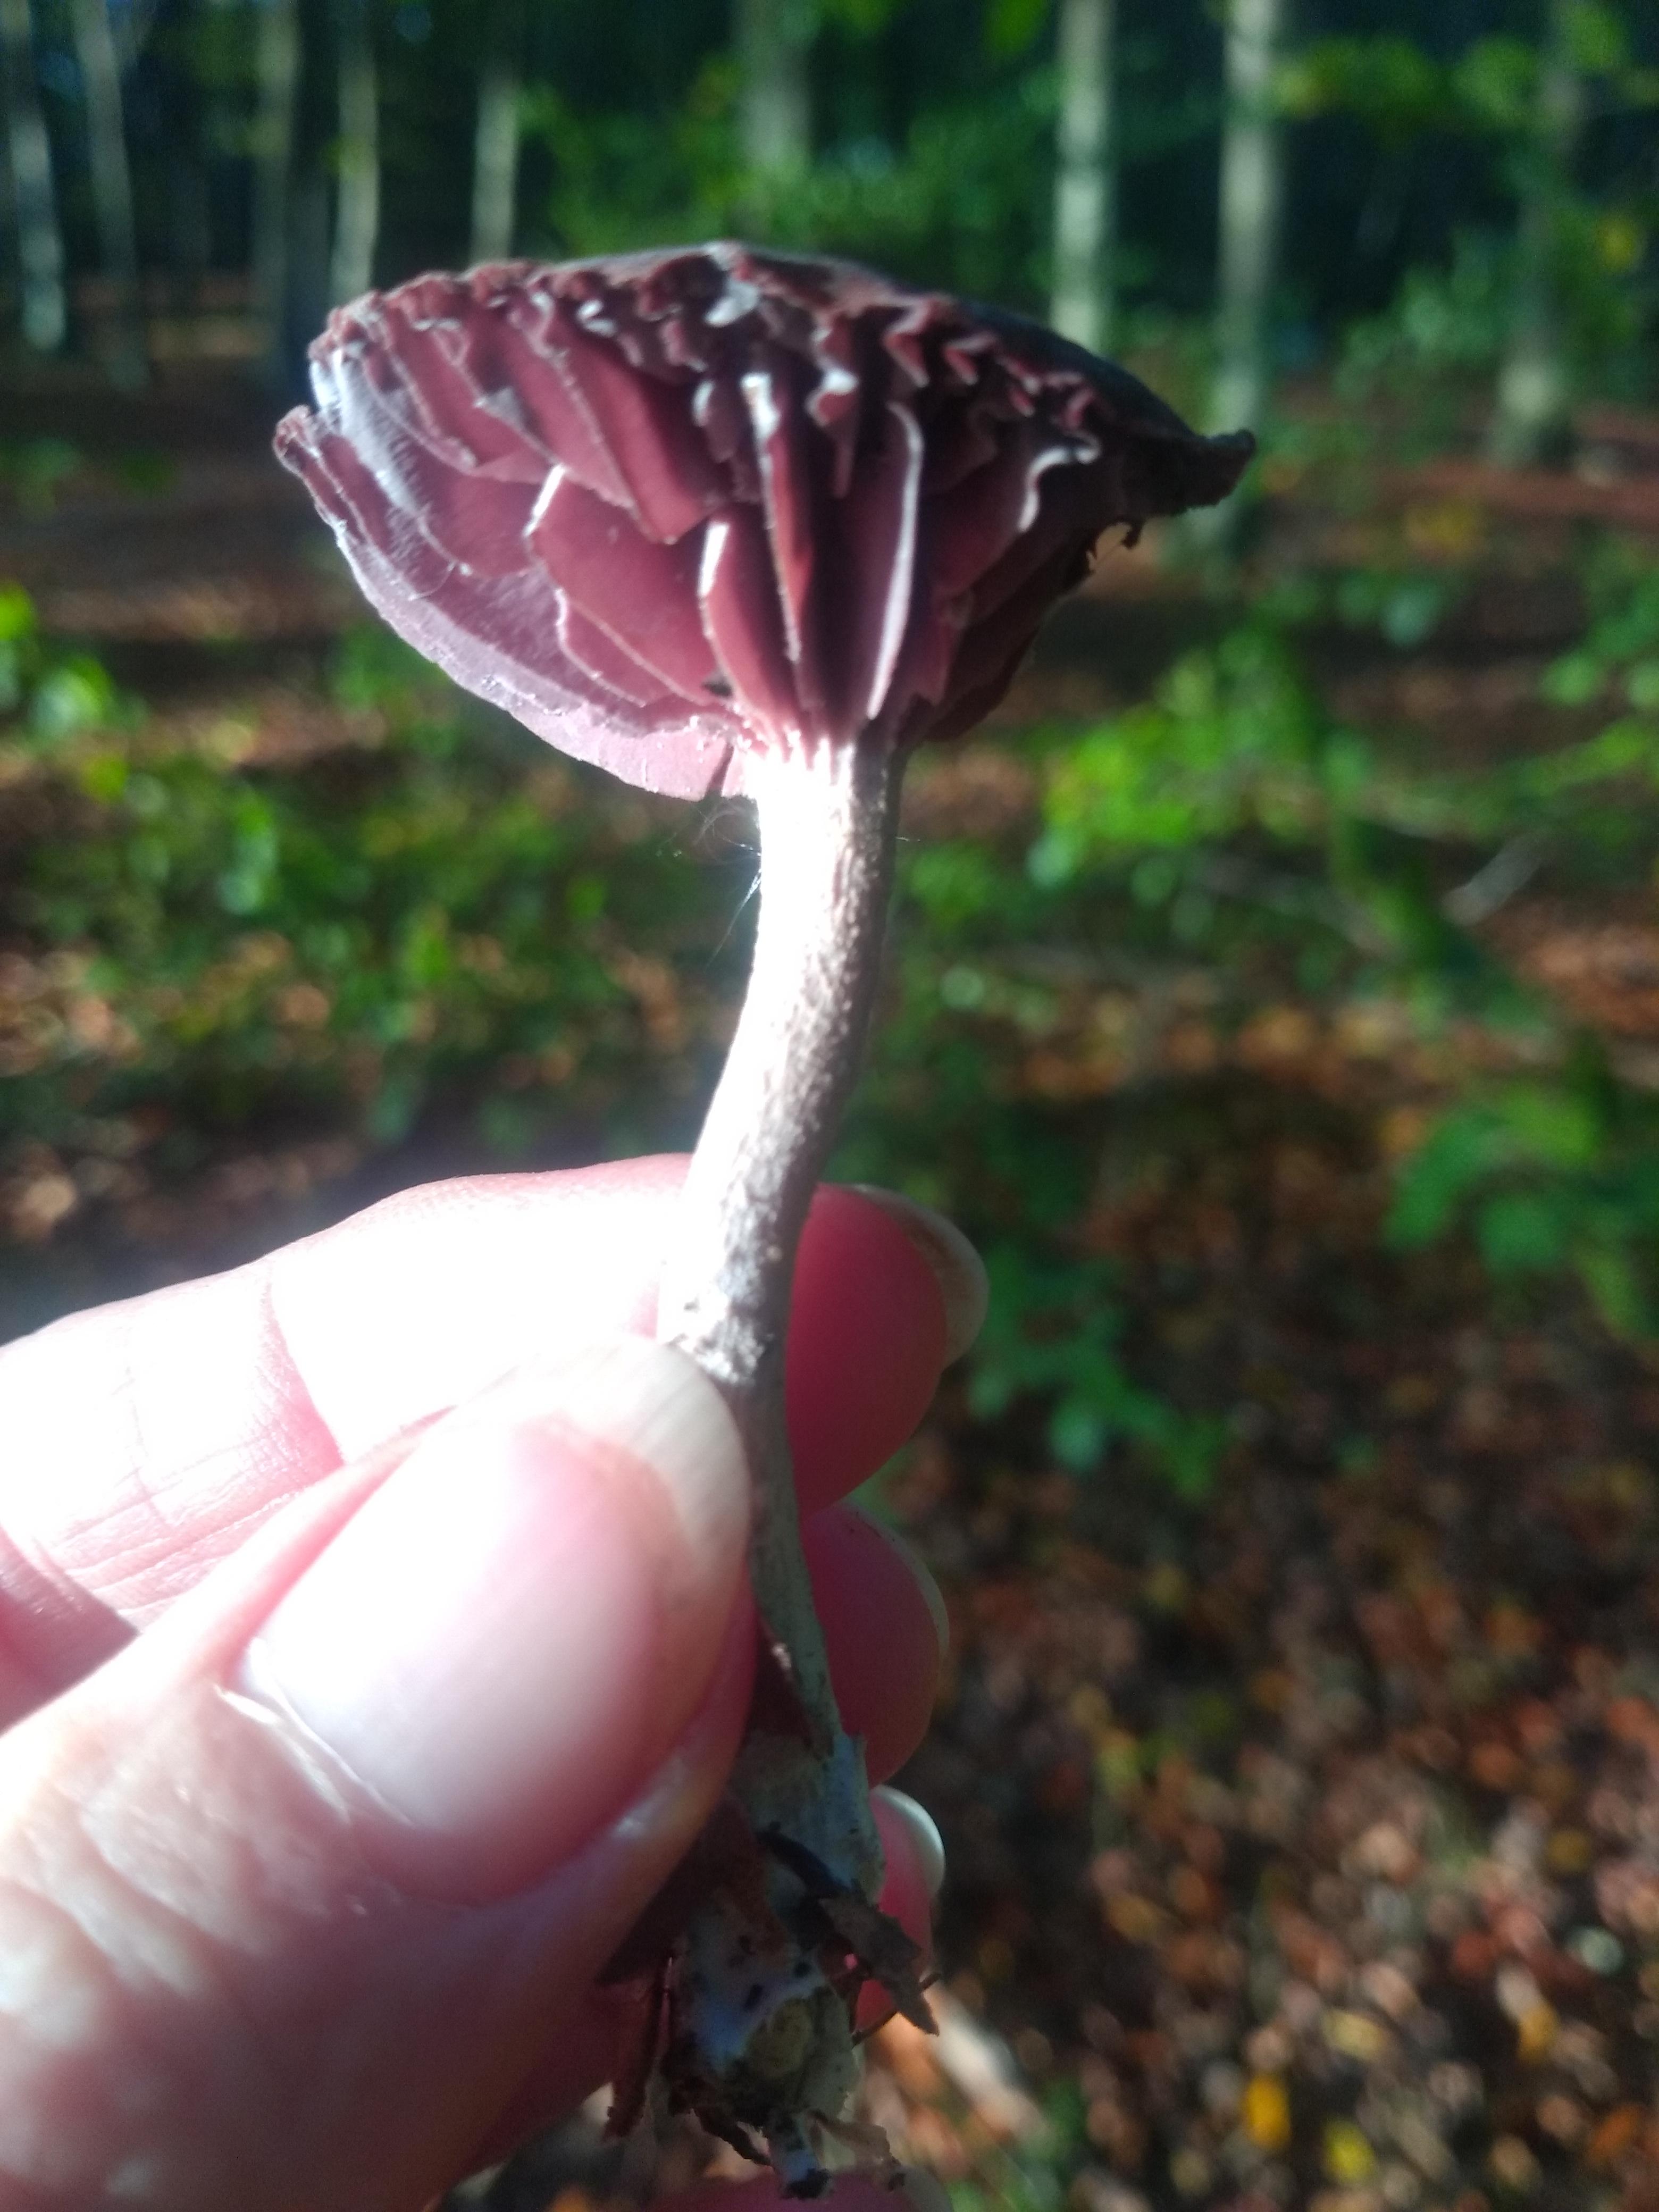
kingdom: Fungi
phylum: Basidiomycota
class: Agaricomycetes
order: Agaricales
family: Hydnangiaceae
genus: Laccaria
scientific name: Laccaria amethystina
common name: violet ametysthat
